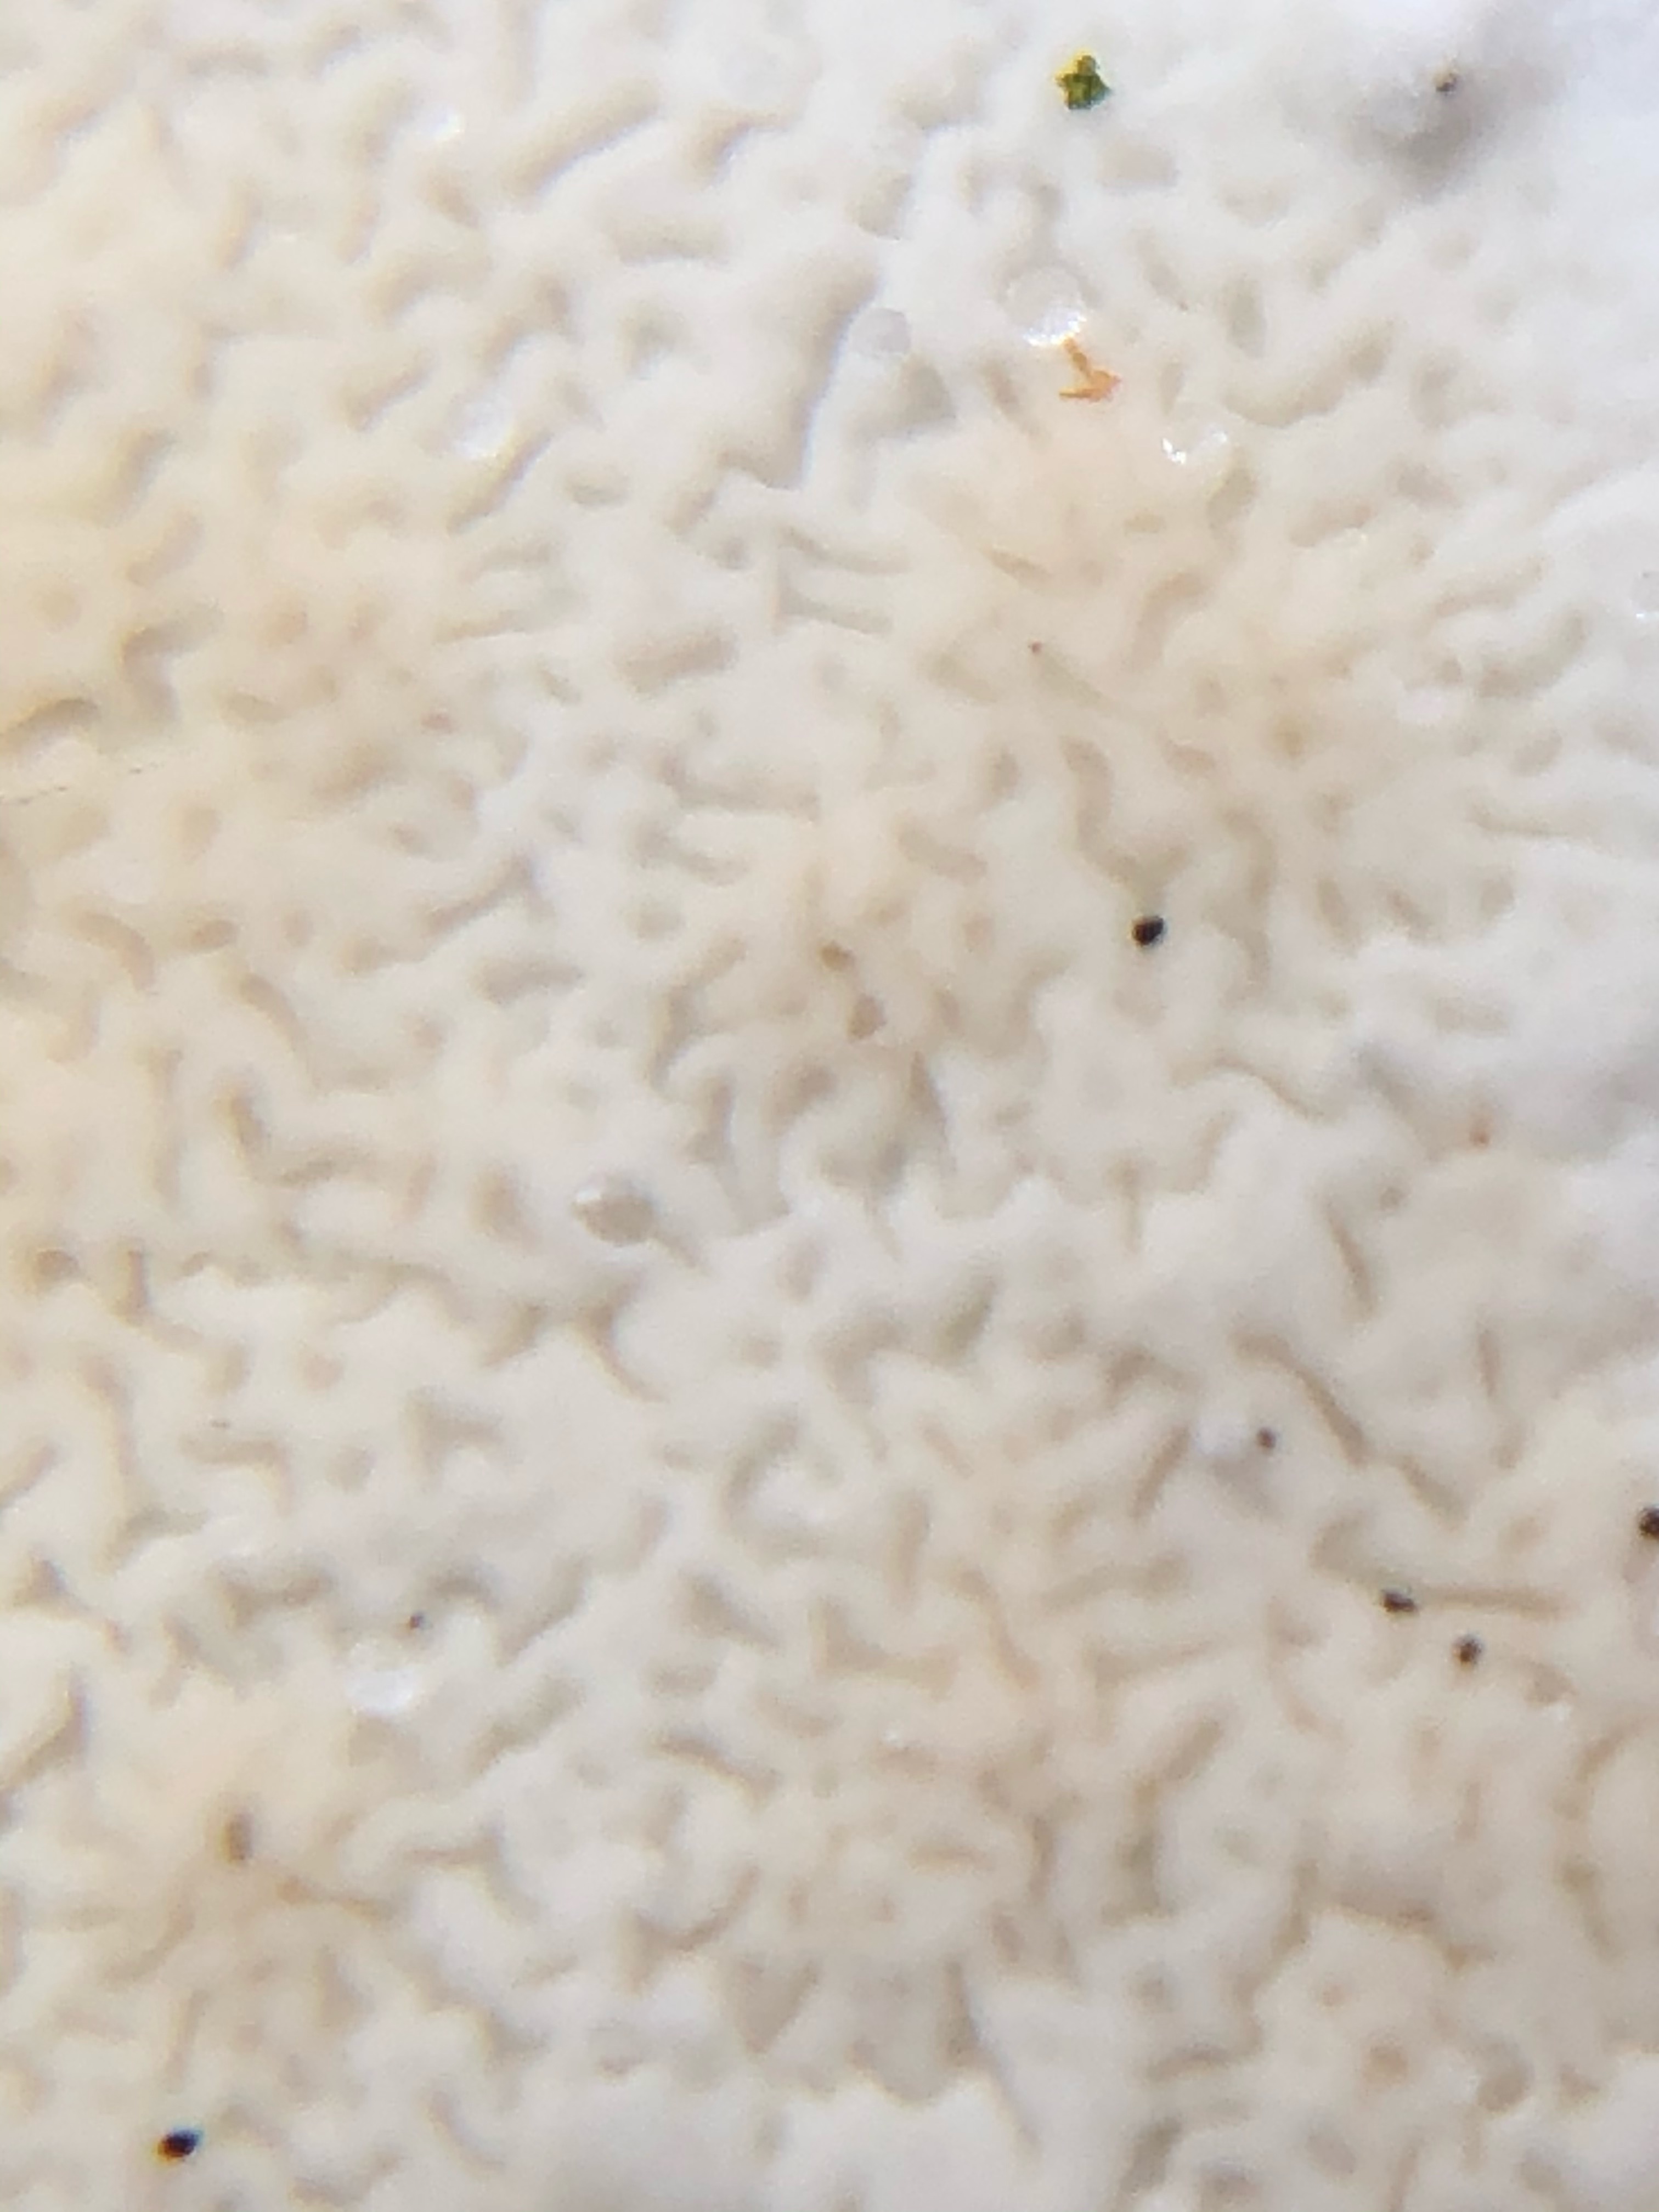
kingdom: Fungi
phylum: Basidiomycota
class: Agaricomycetes
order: Polyporales
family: Irpicaceae
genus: Byssomerulius
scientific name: Byssomerulius corium
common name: læder-åresvamp
